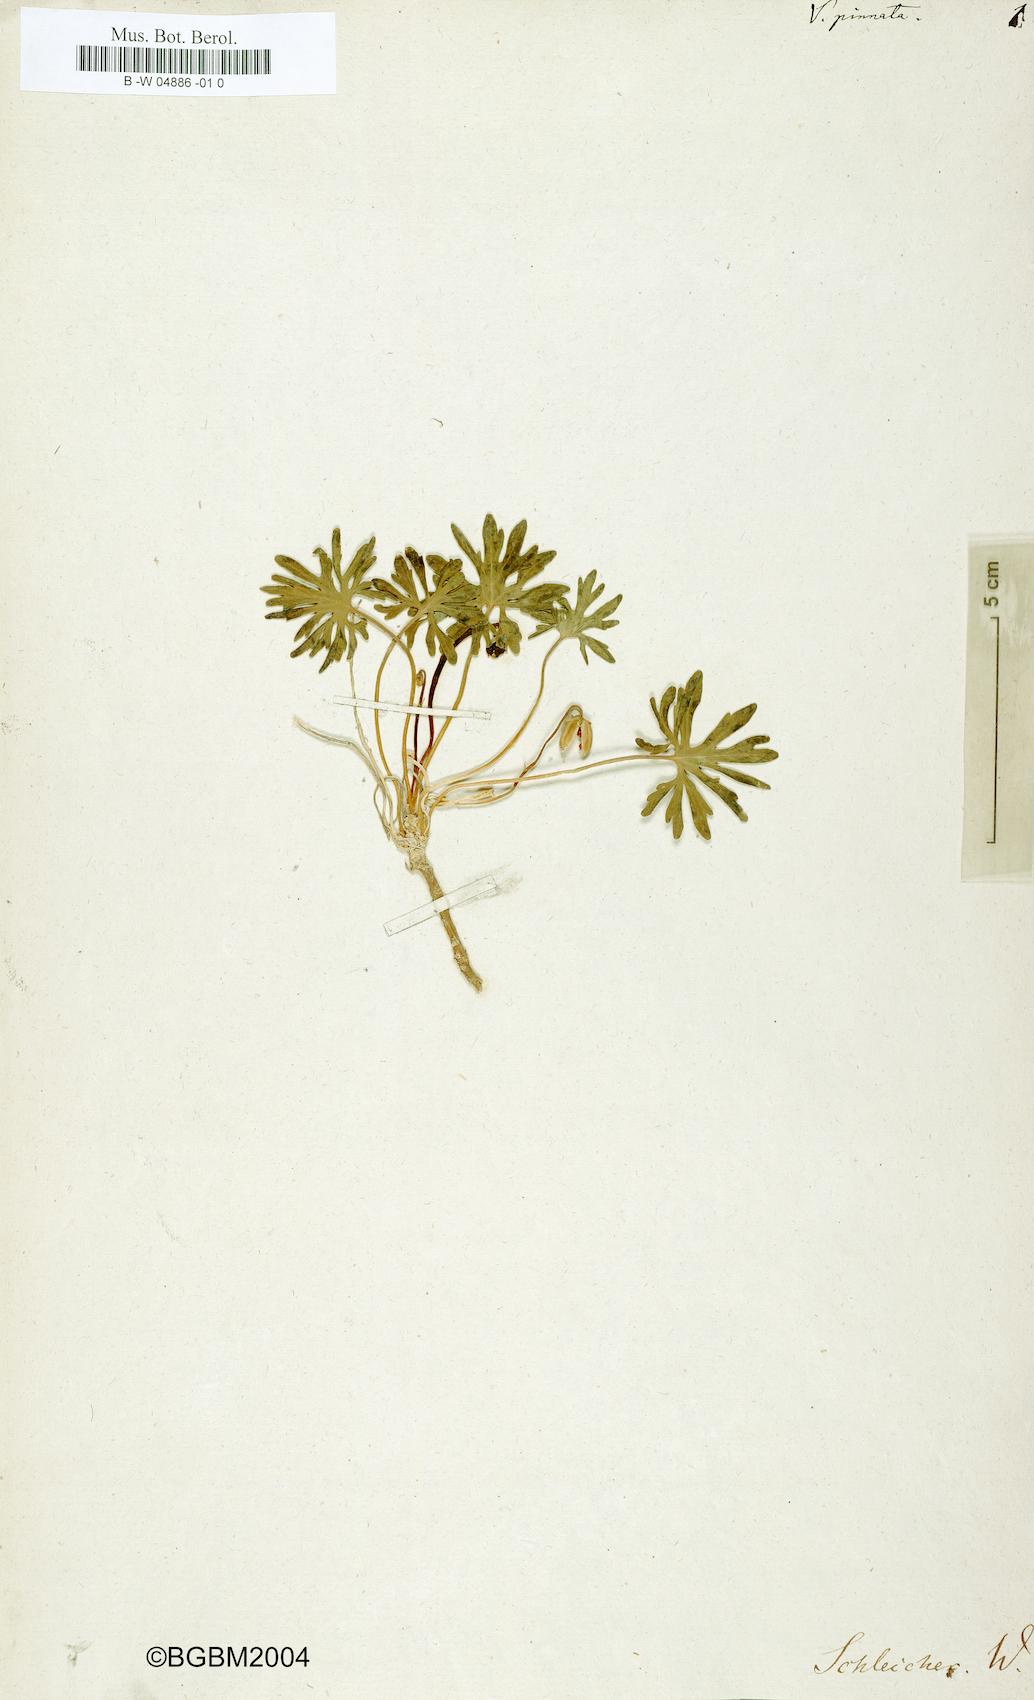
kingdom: Plantae
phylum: Tracheophyta
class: Magnoliopsida
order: Malpighiales
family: Violaceae
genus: Viola
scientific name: Viola pinnata
